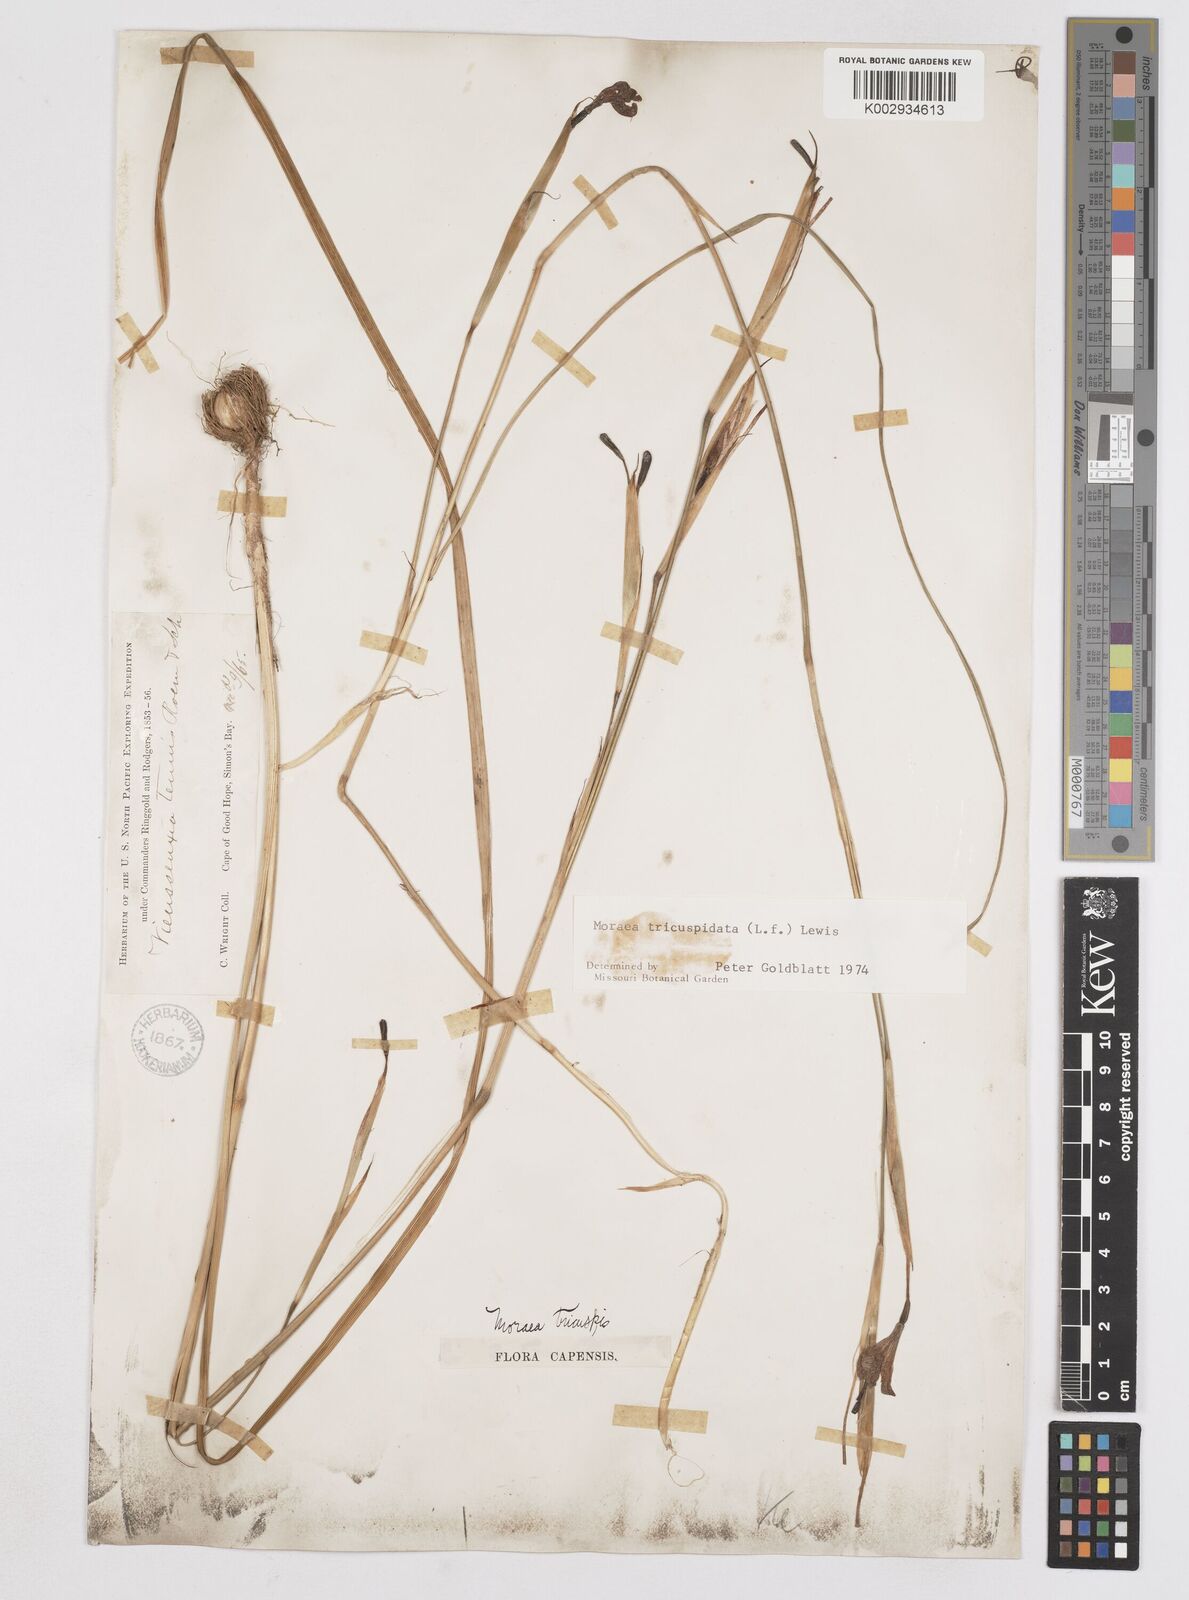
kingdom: Plantae
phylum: Tracheophyta
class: Liliopsida
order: Asparagales
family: Iridaceae
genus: Moraea
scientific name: Moraea tricuspidata
